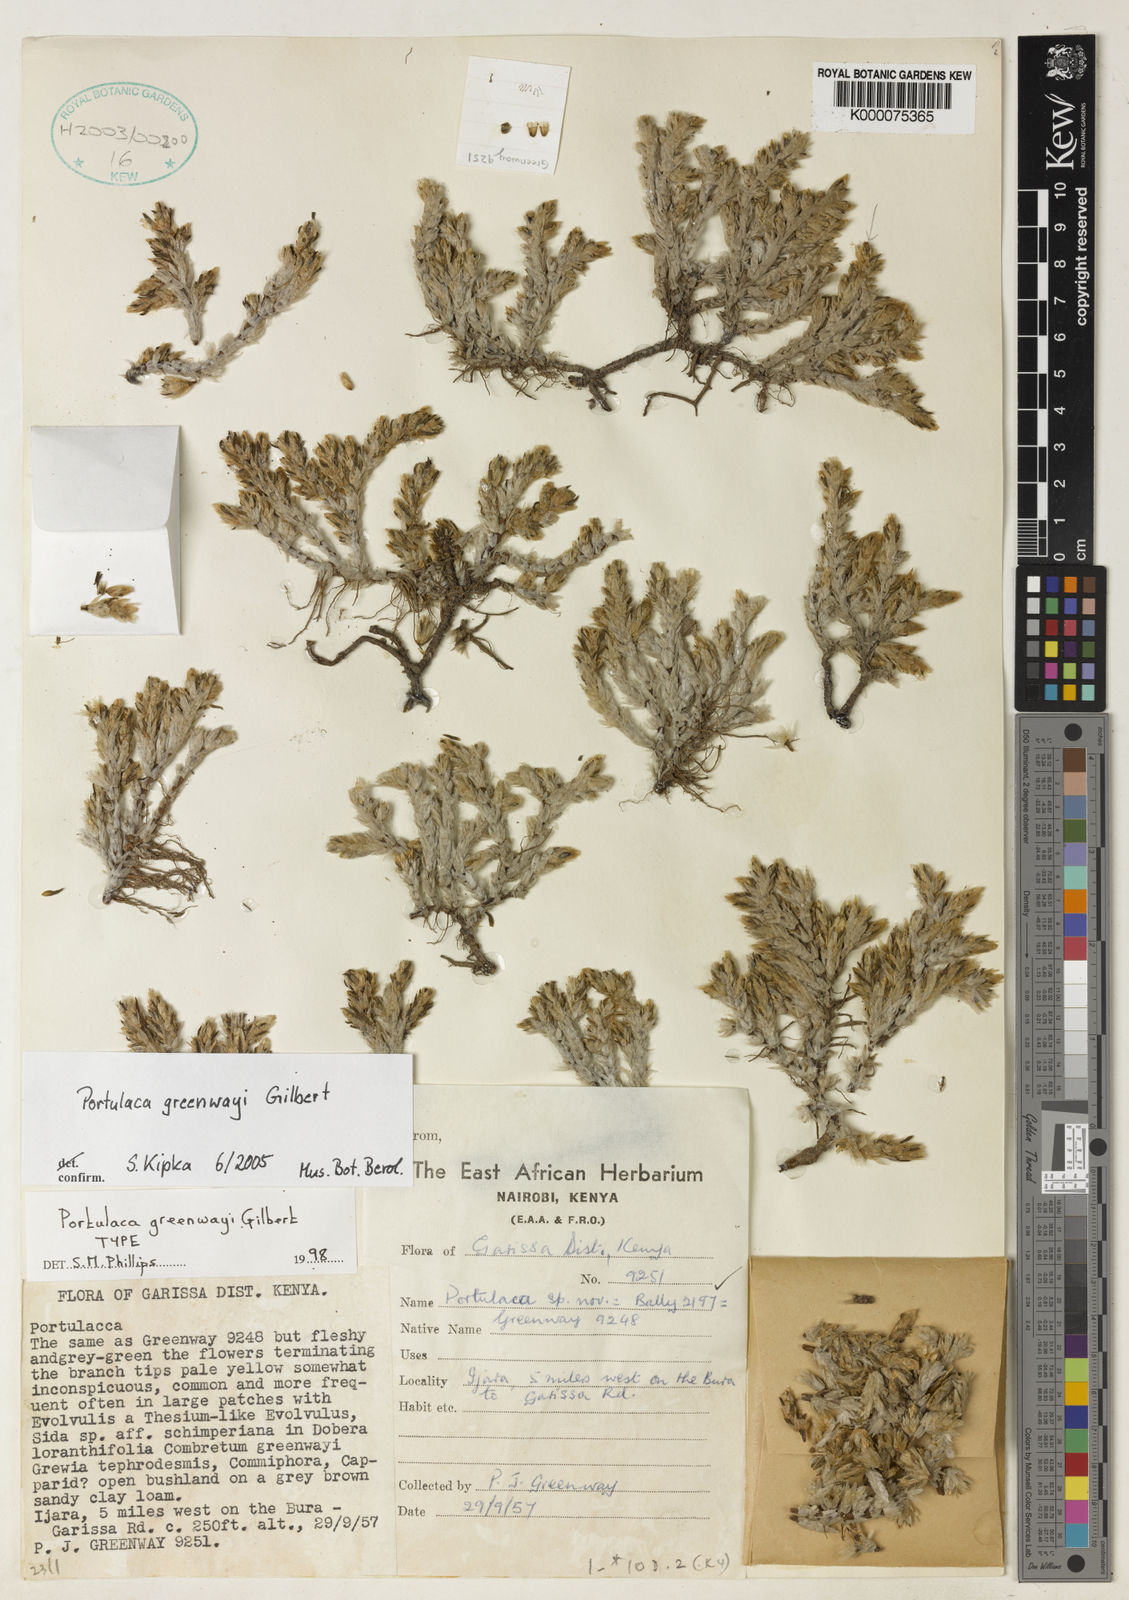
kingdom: Plantae
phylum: Tracheophyta
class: Magnoliopsida
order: Caryophyllales
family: Portulacaceae
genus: Portulaca
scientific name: Portulaca greenwayi
